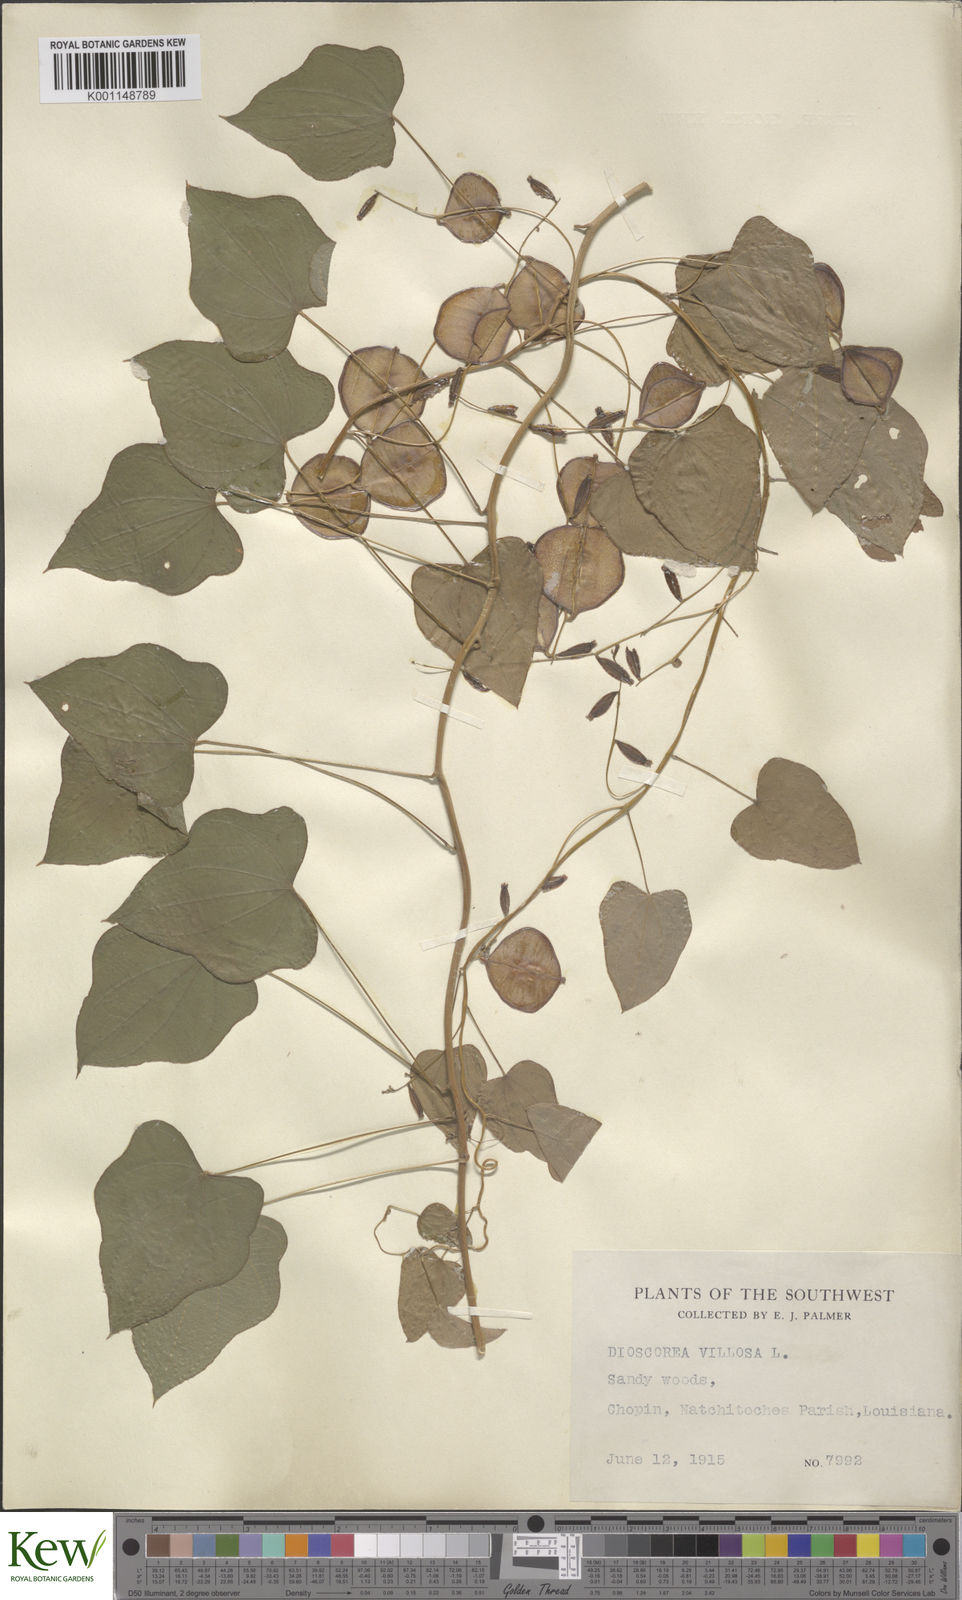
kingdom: Plantae
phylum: Tracheophyta
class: Liliopsida
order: Dioscoreales
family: Dioscoreaceae
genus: Dioscorea
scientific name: Dioscorea villosa
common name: Wild yam
